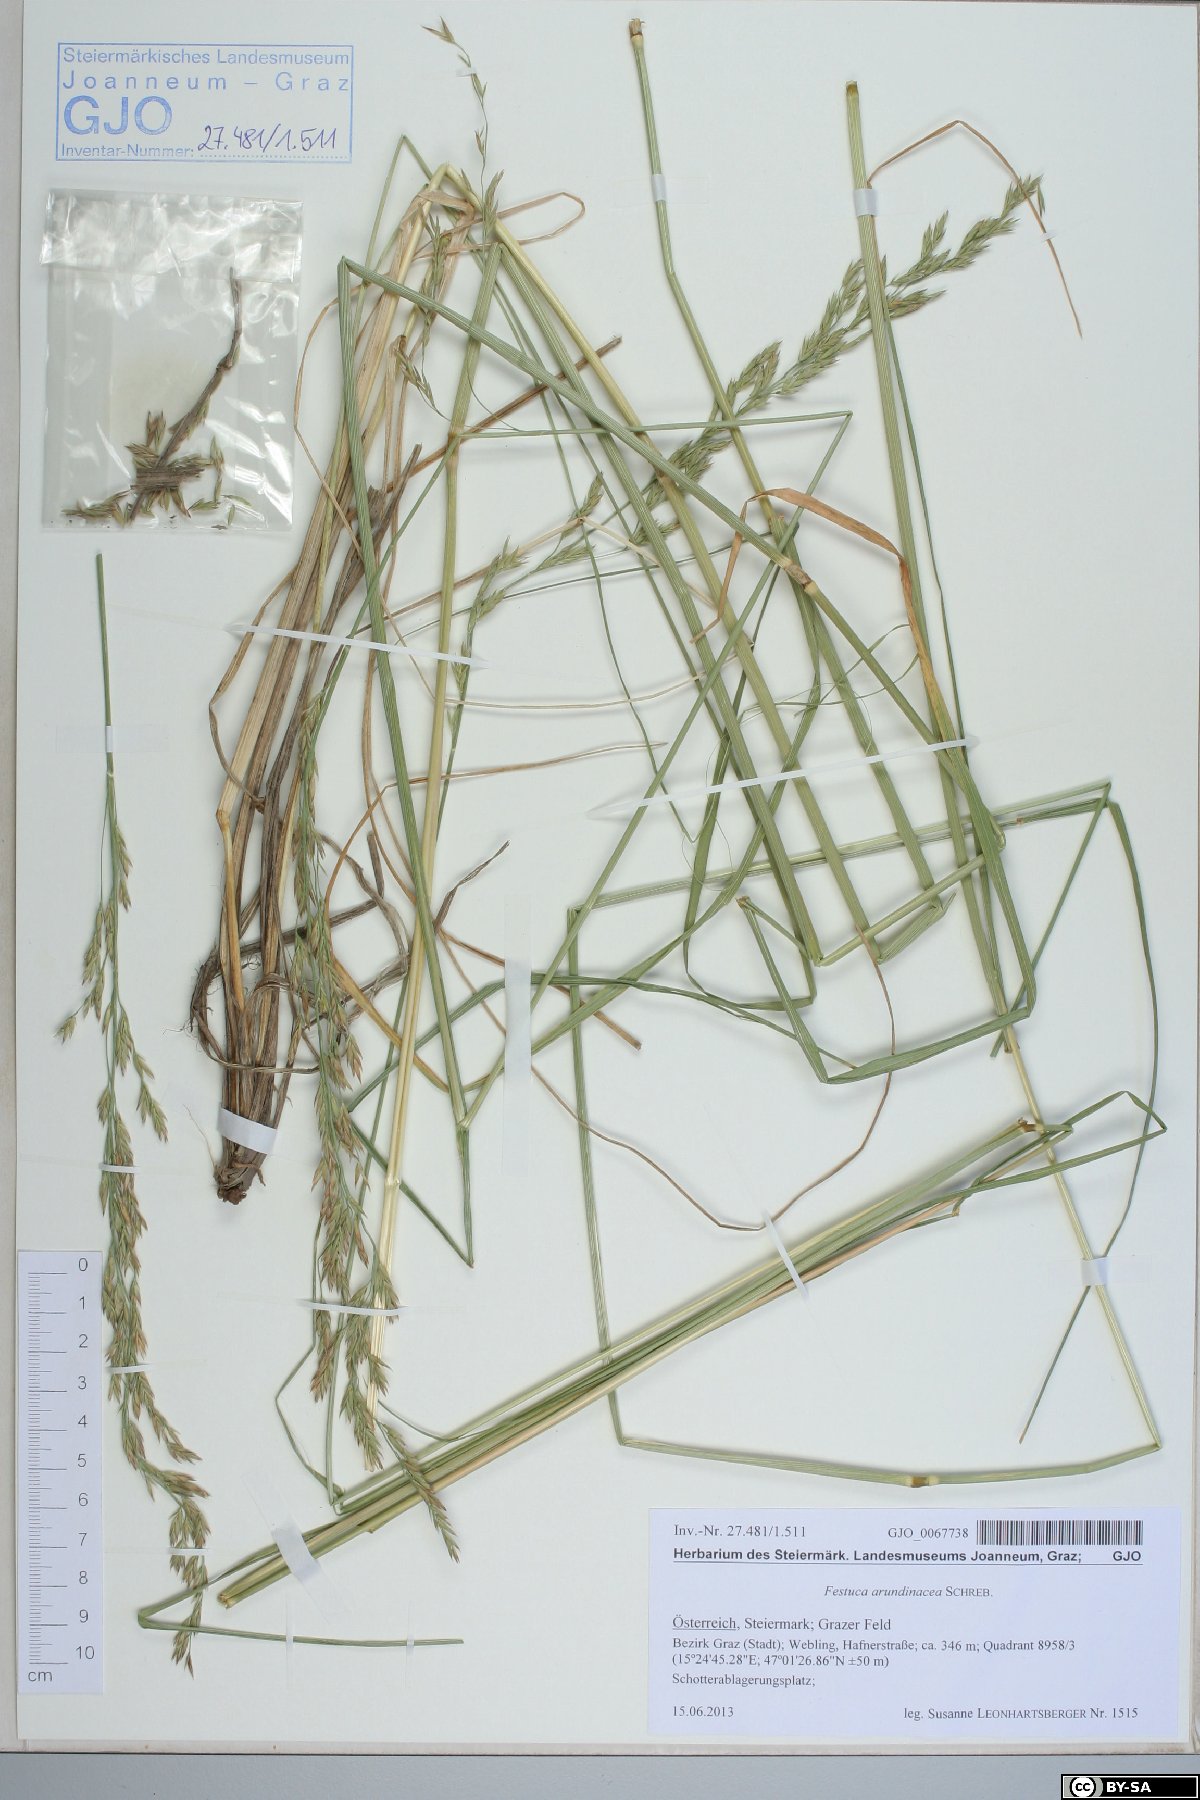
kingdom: Plantae
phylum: Tracheophyta
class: Liliopsida
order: Poales
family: Poaceae
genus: Lolium
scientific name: Lolium arundinaceum
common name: Reed fescue
